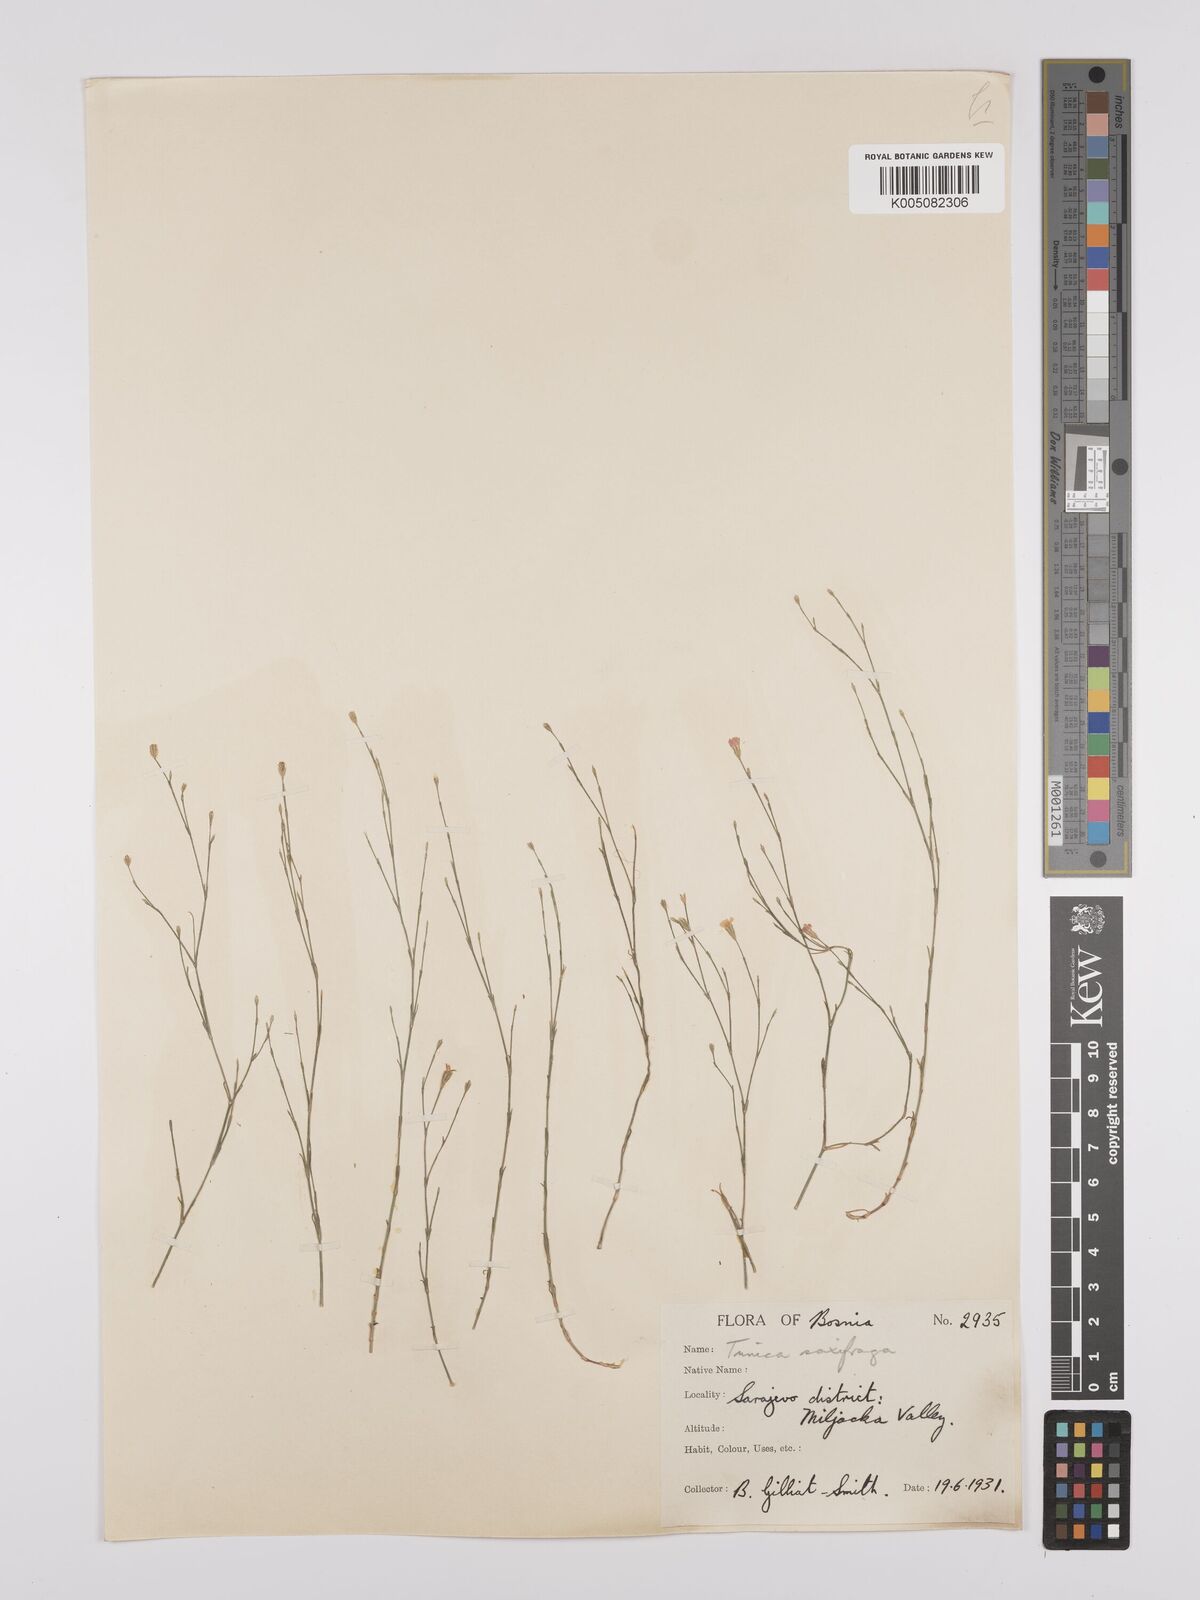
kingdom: Plantae
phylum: Tracheophyta
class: Magnoliopsida
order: Caryophyllales
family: Caryophyllaceae
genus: Petrorhagia
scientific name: Petrorhagia saxifraga
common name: Tunicflower
